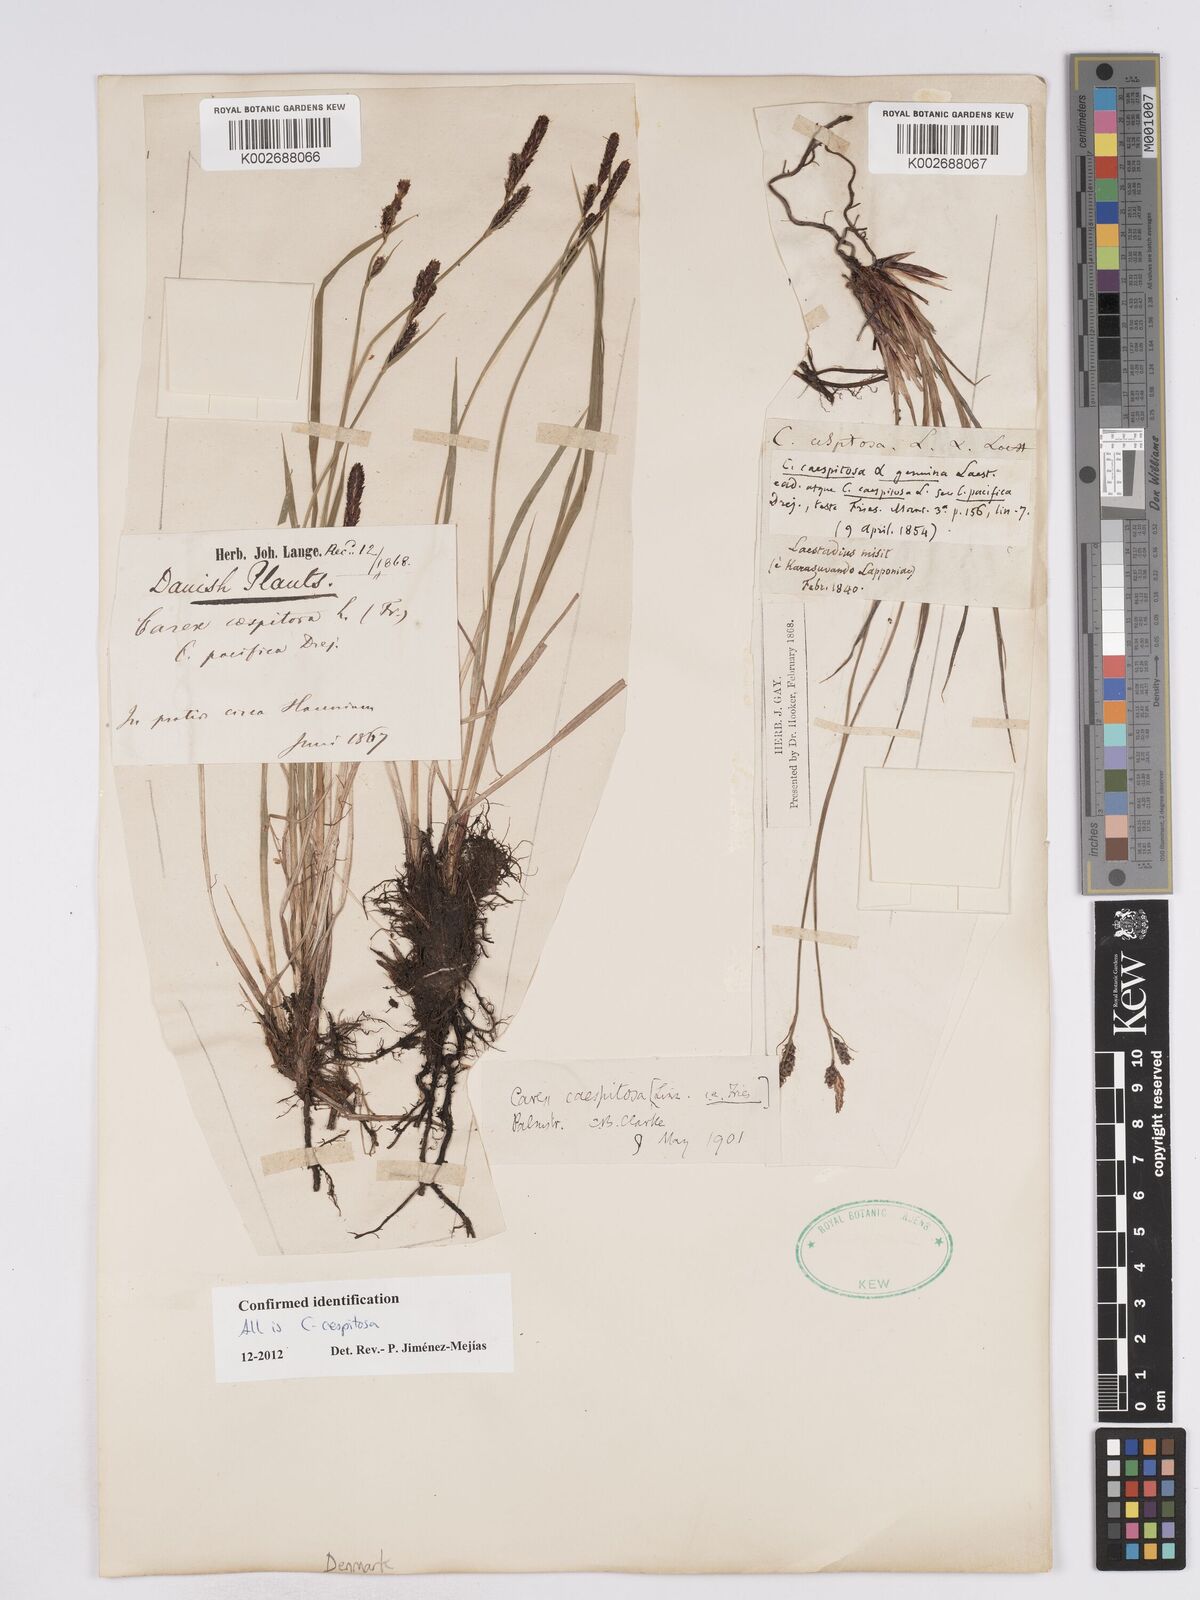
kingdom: Plantae
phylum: Tracheophyta
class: Liliopsida
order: Poales
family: Cyperaceae
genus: Carex
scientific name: Carex cespitosa
